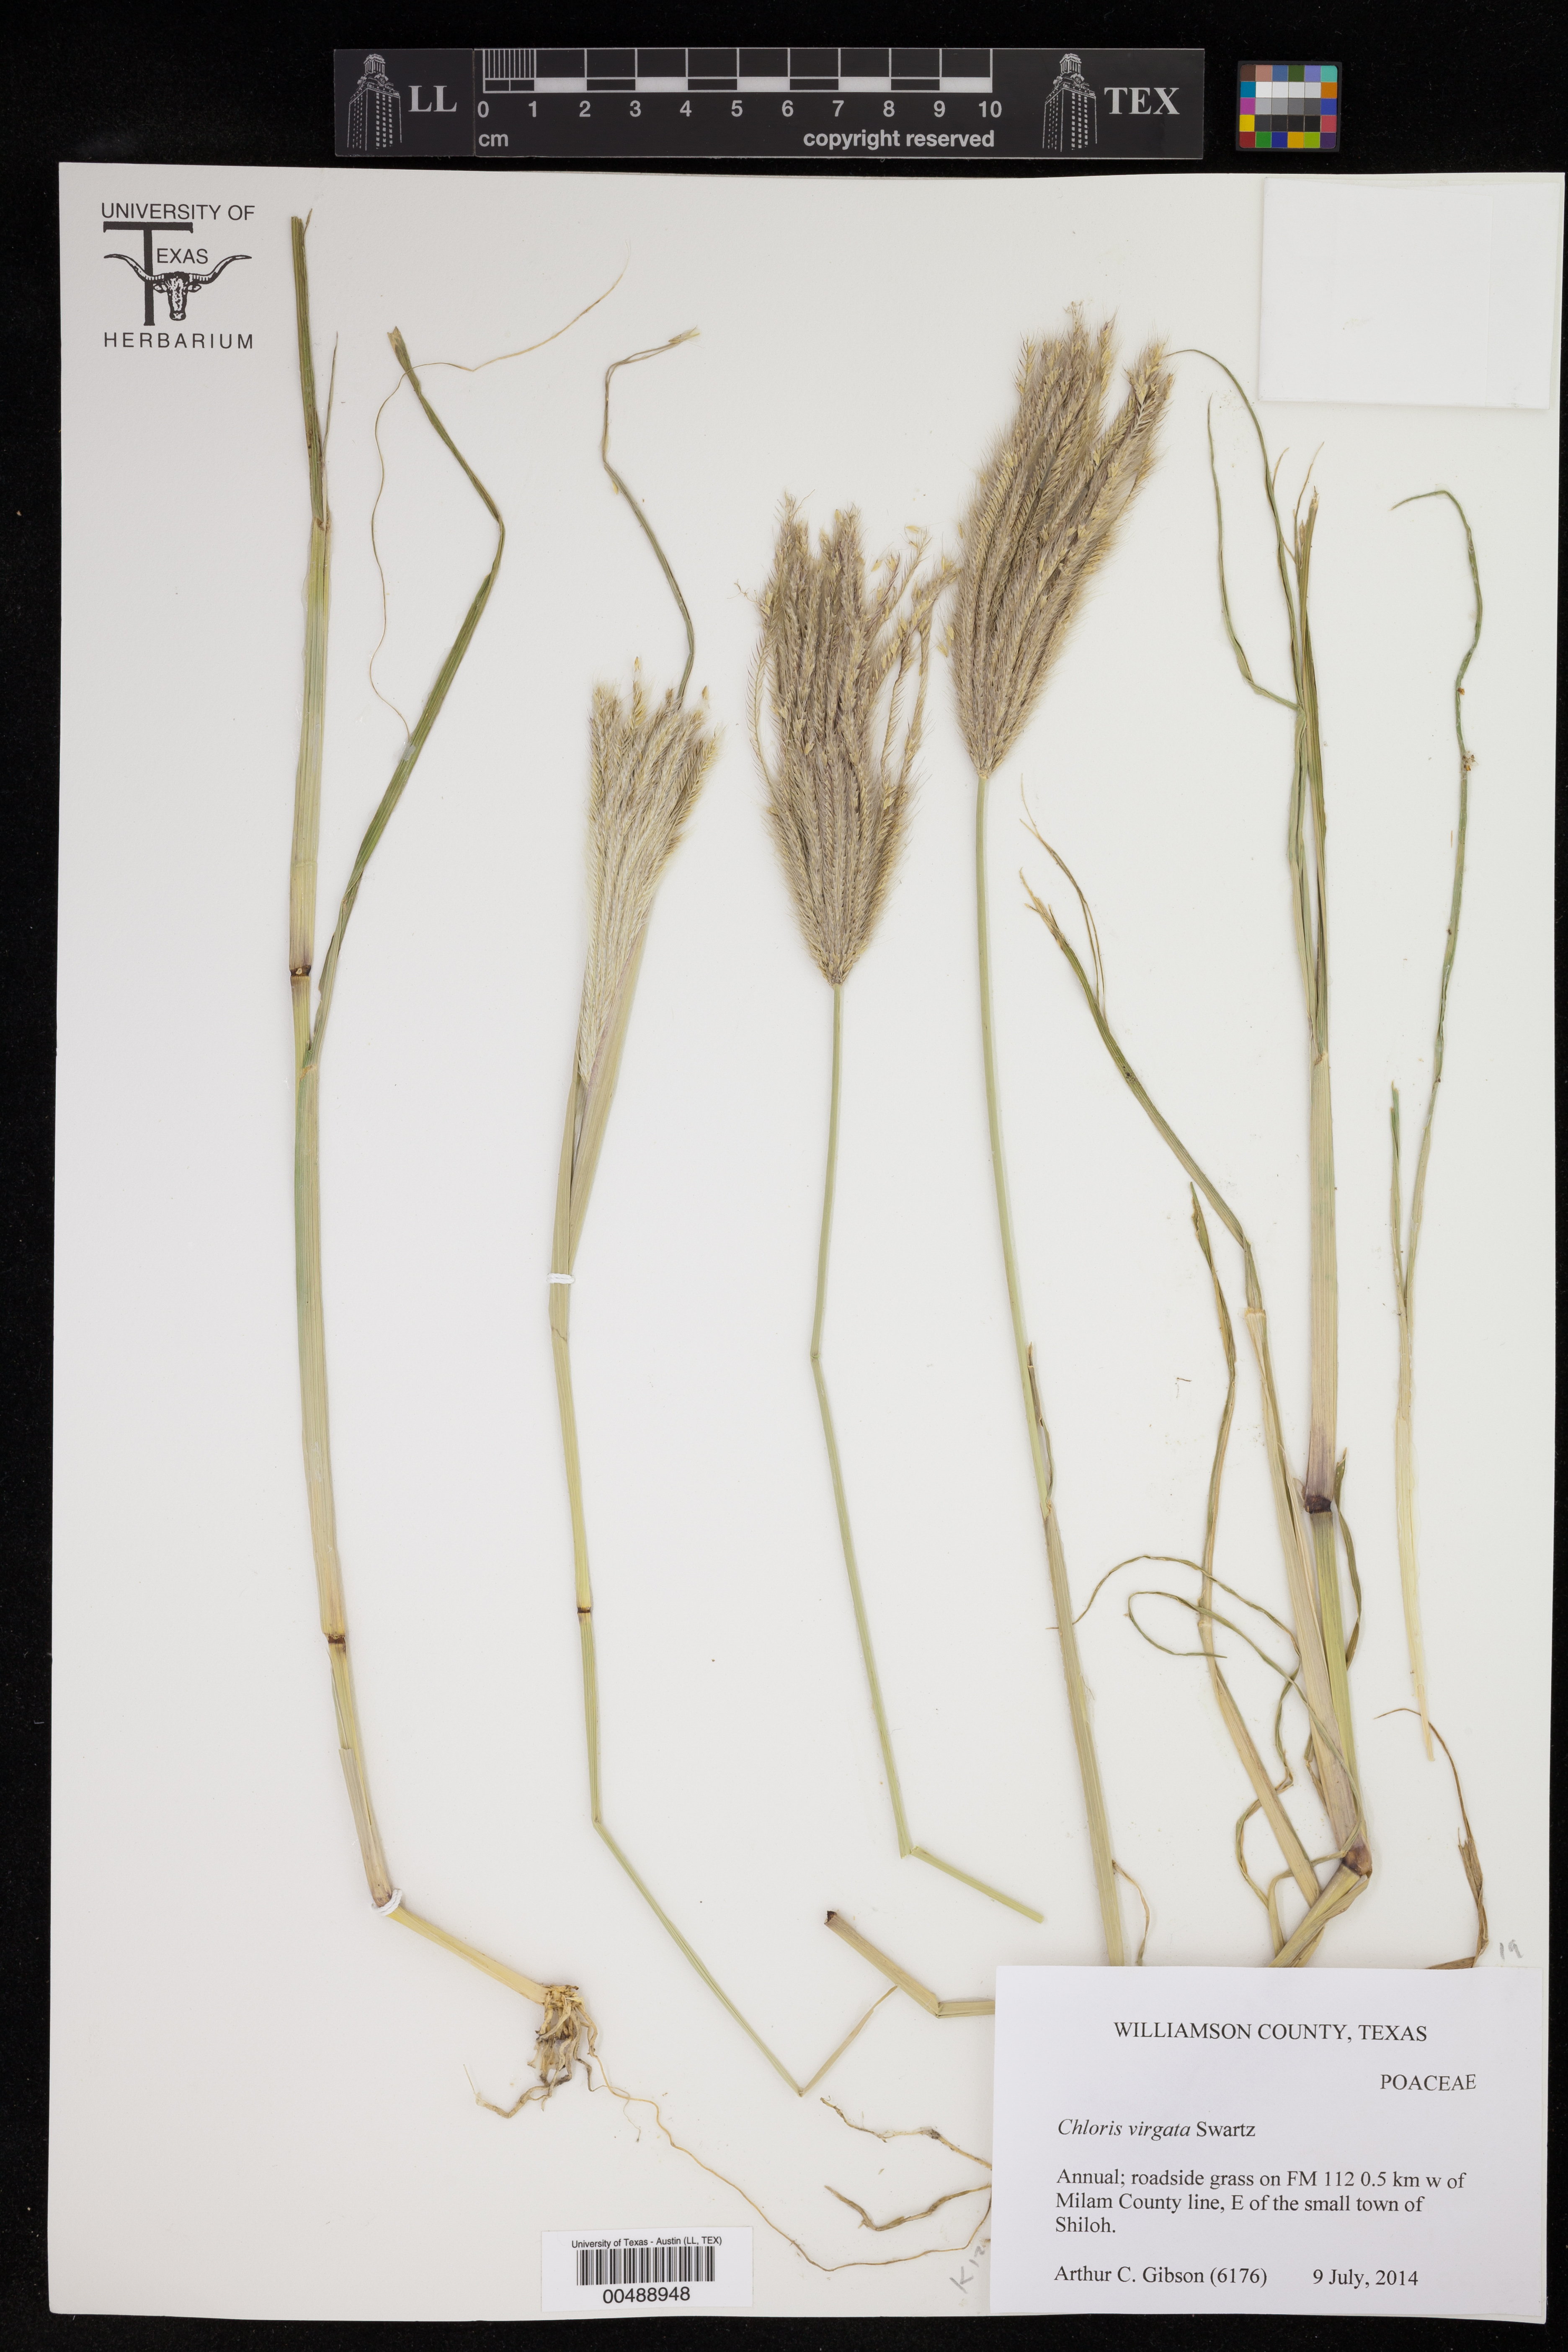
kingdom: Plantae
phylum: Tracheophyta
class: Liliopsida
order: Poales
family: Poaceae
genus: Chloris
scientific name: Chloris virgata
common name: Feathery rhodes-grass
